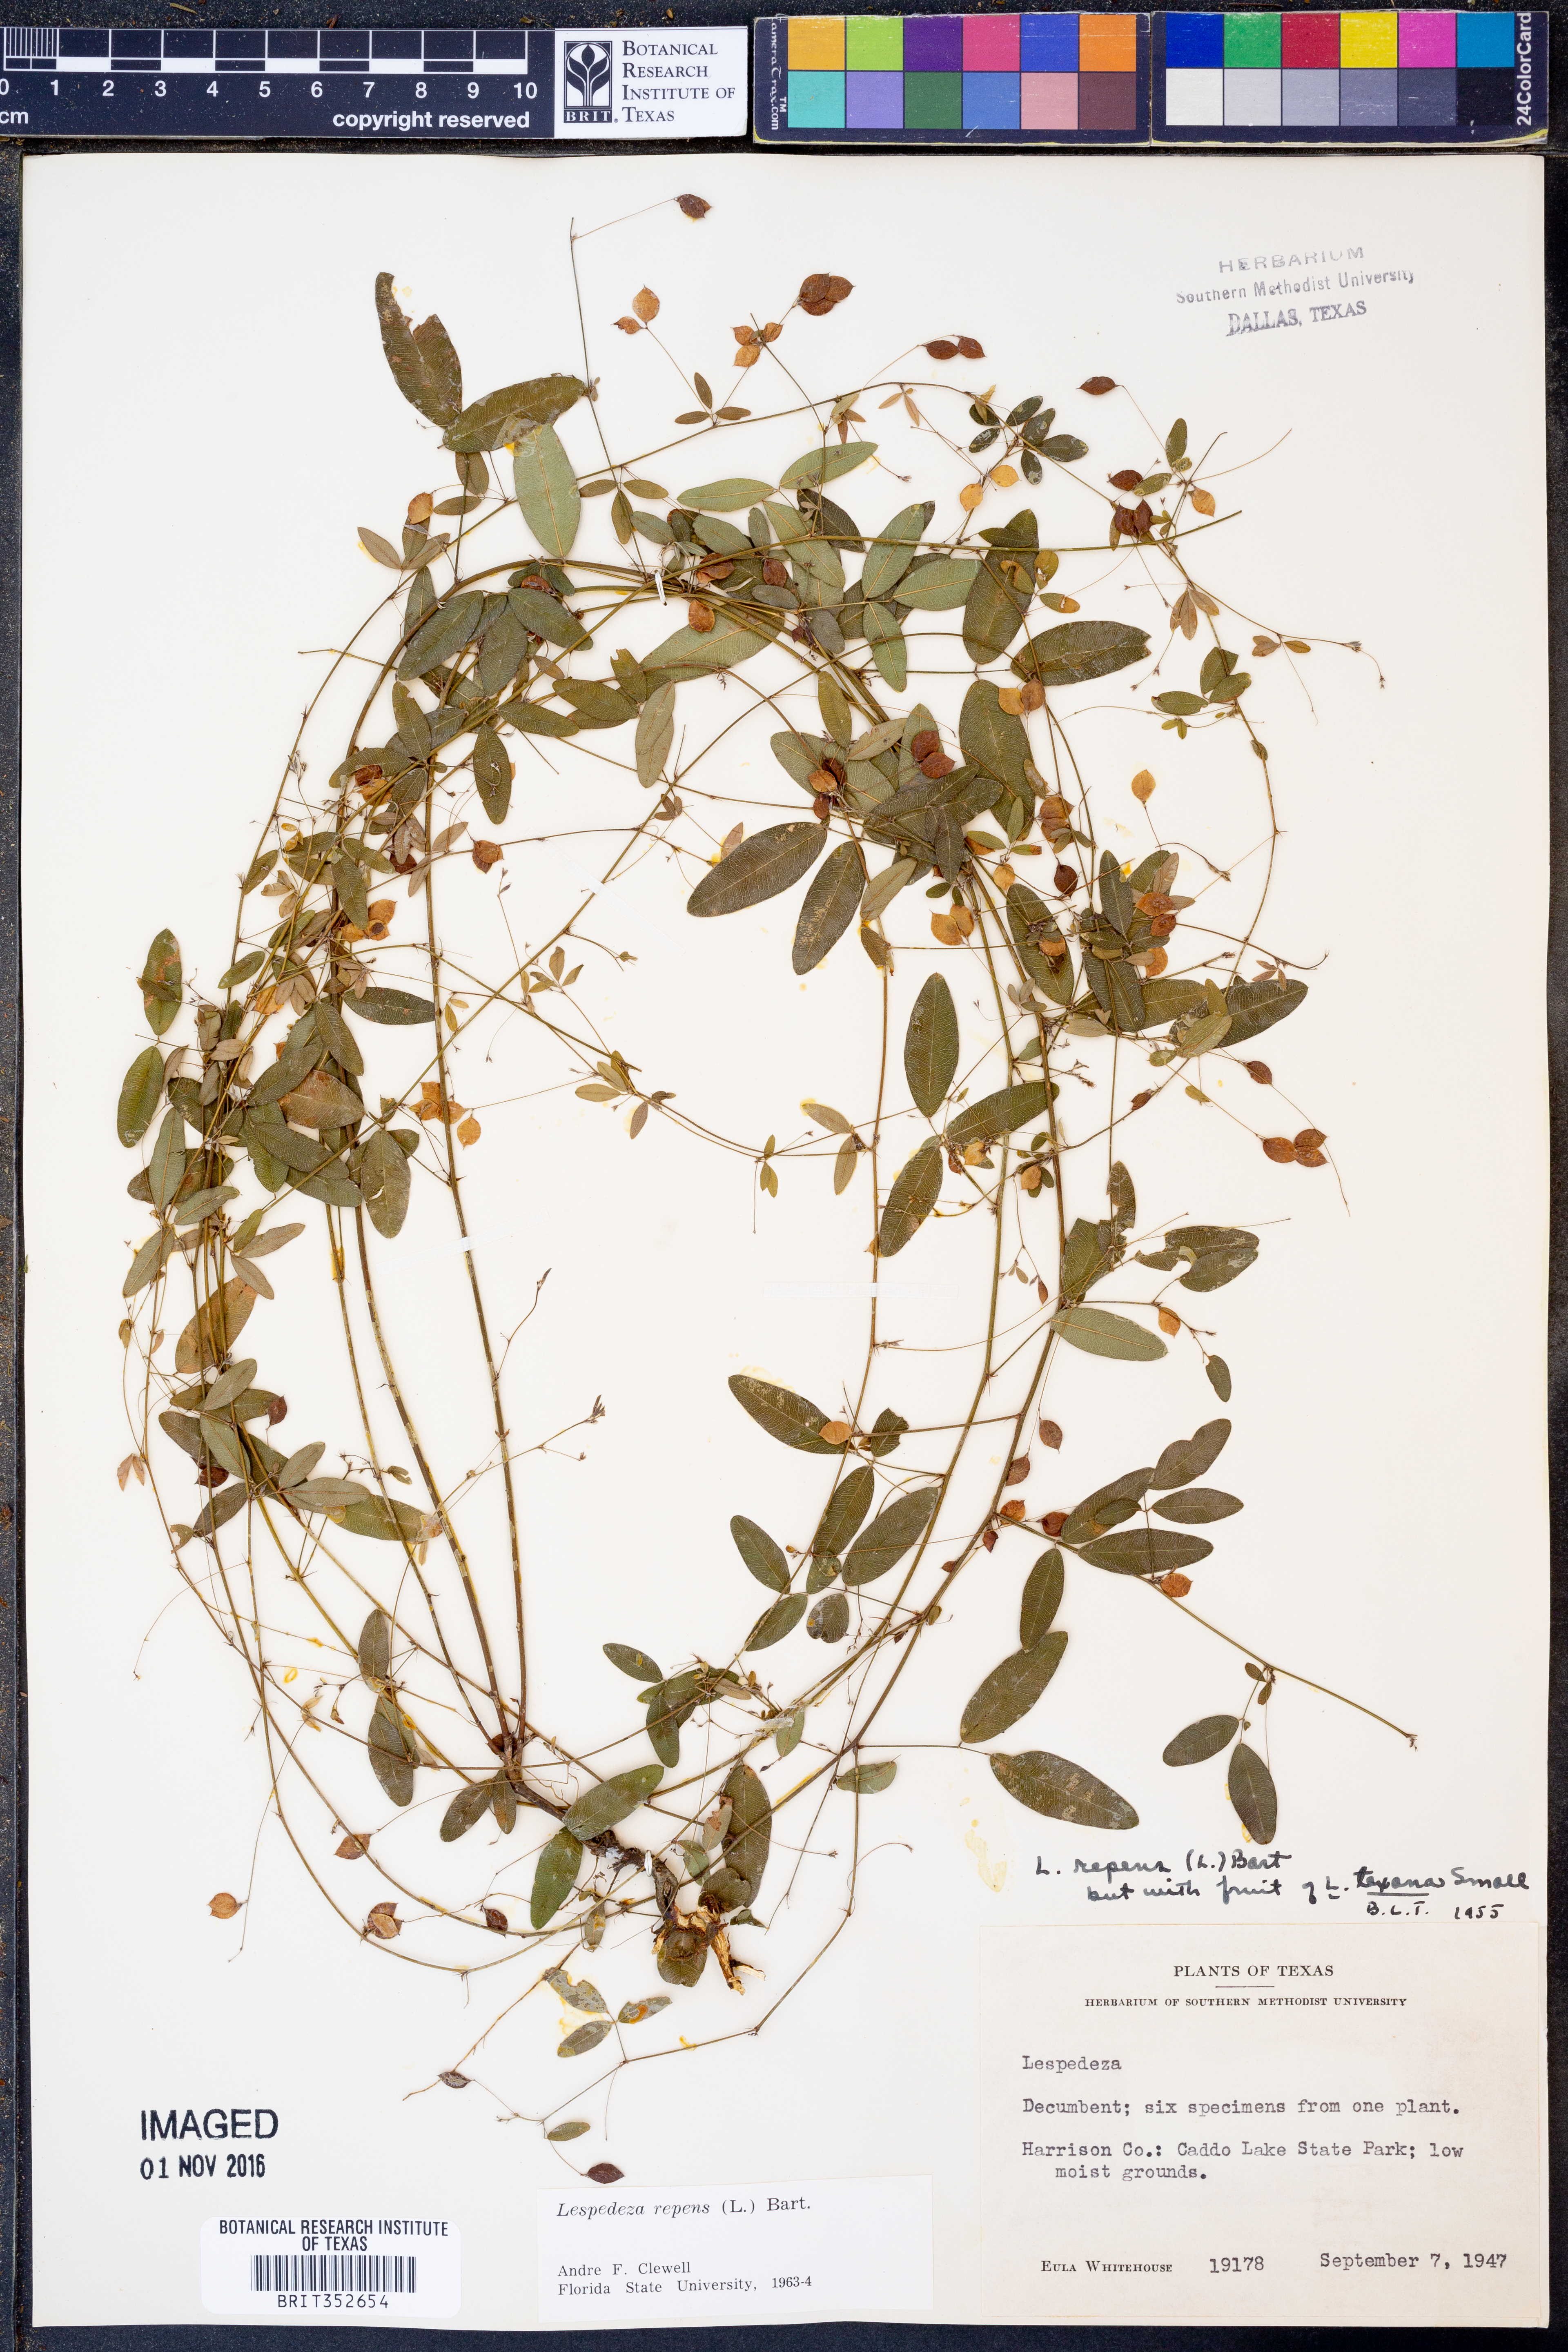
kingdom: Plantae
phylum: Tracheophyta
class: Magnoliopsida
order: Fabales
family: Fabaceae
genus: Lespedeza
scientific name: Lespedeza repens
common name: Creeping bush-clover
